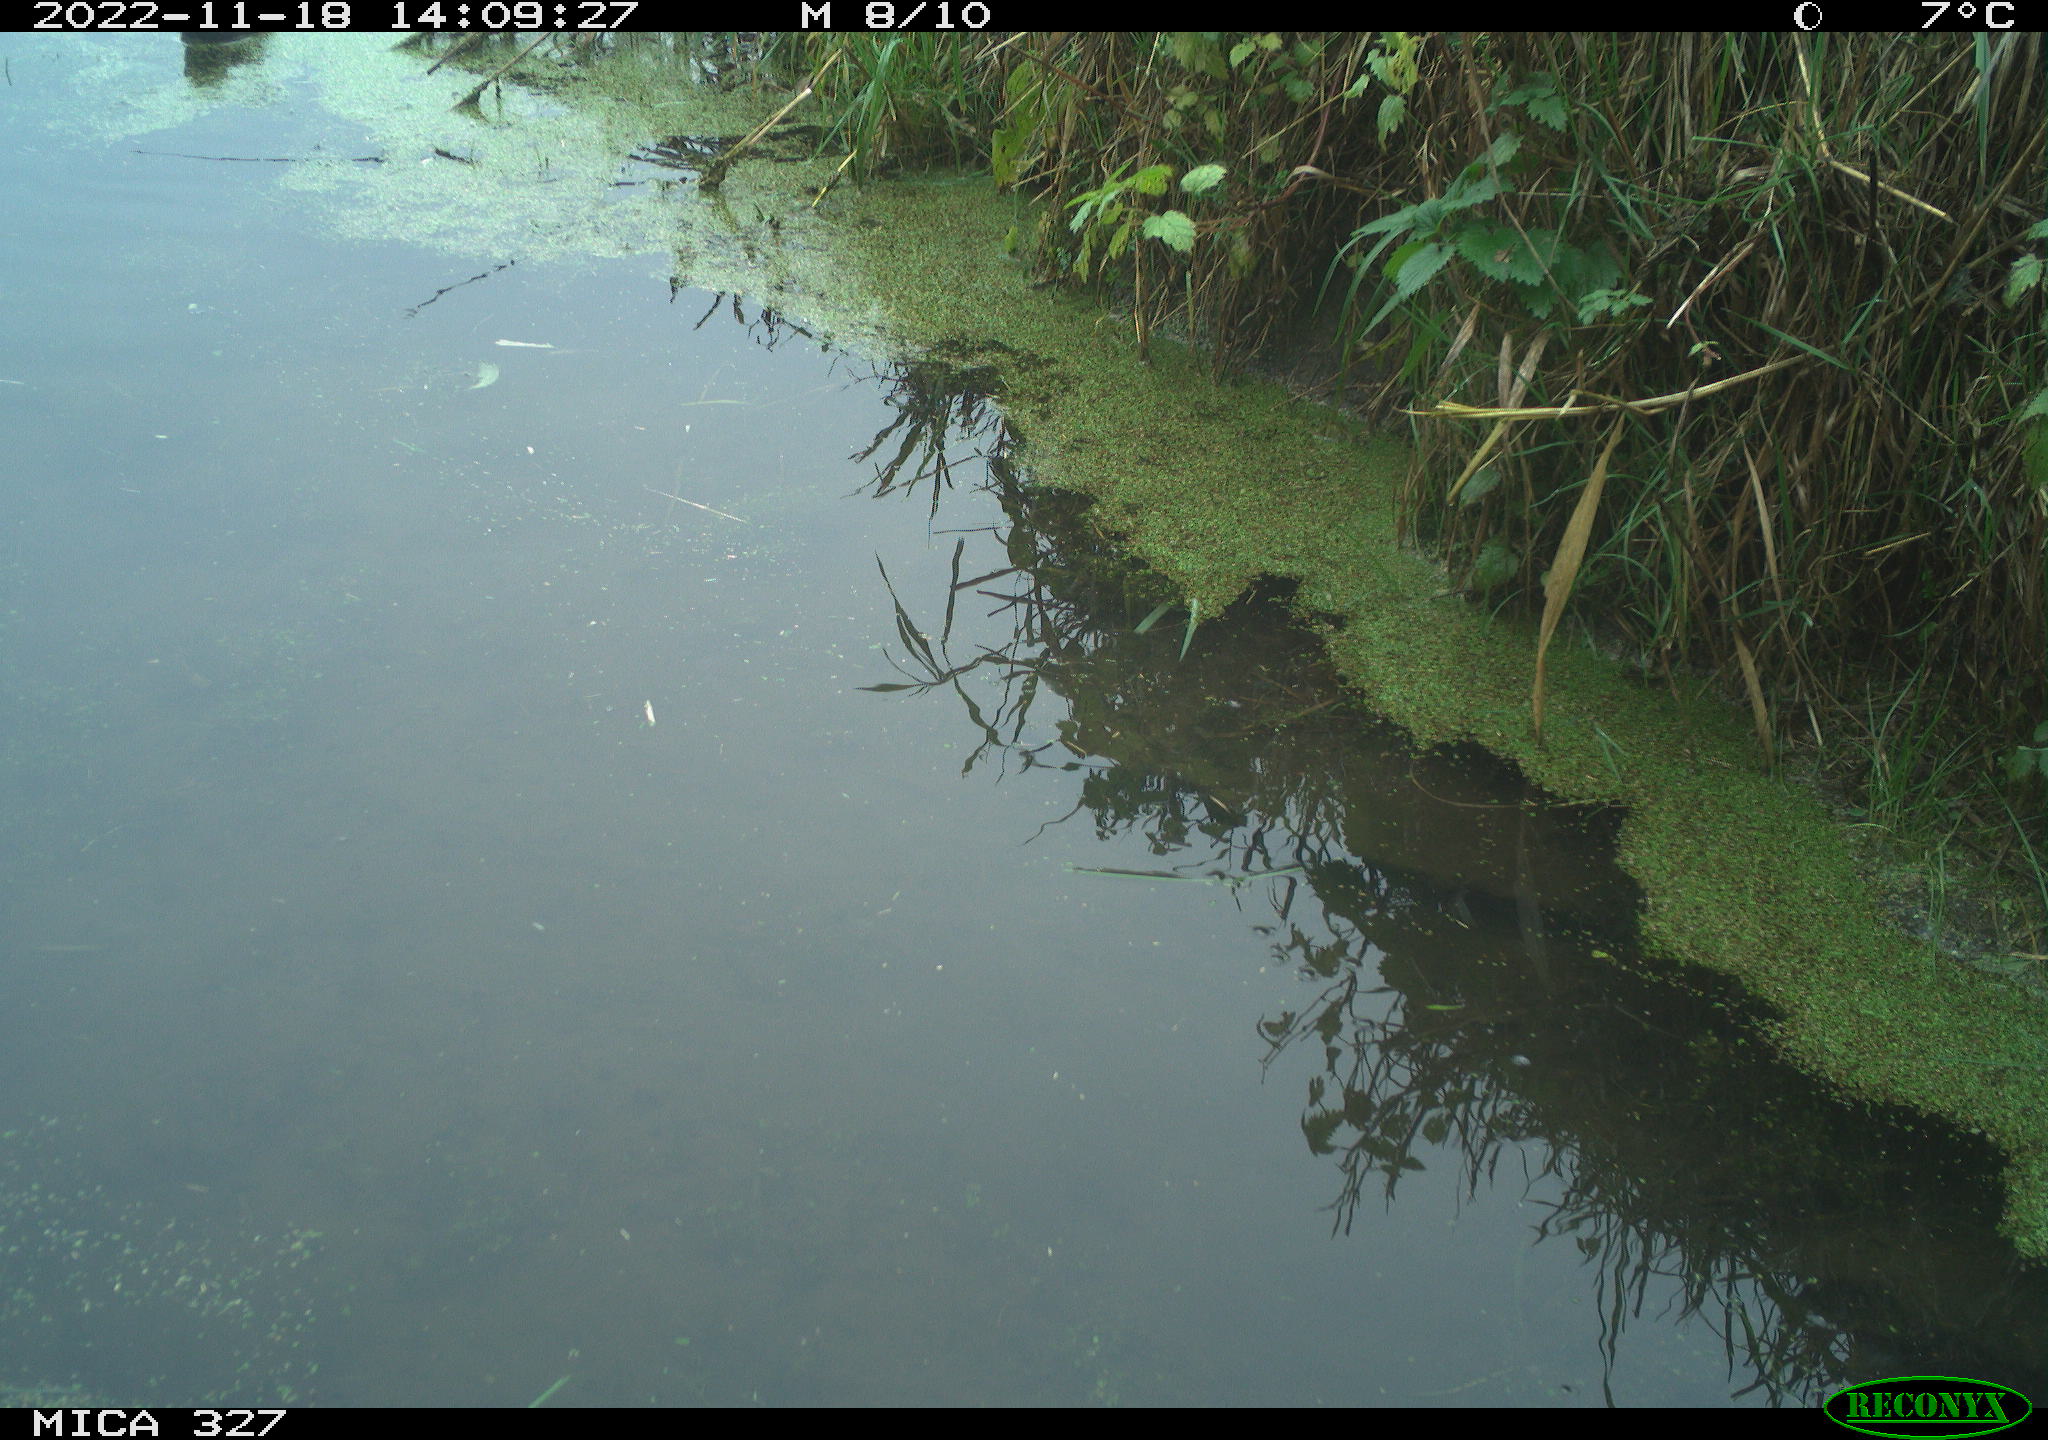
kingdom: Animalia
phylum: Chordata
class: Aves
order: Gruiformes
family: Rallidae
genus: Gallinula
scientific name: Gallinula chloropus
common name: Common moorhen
